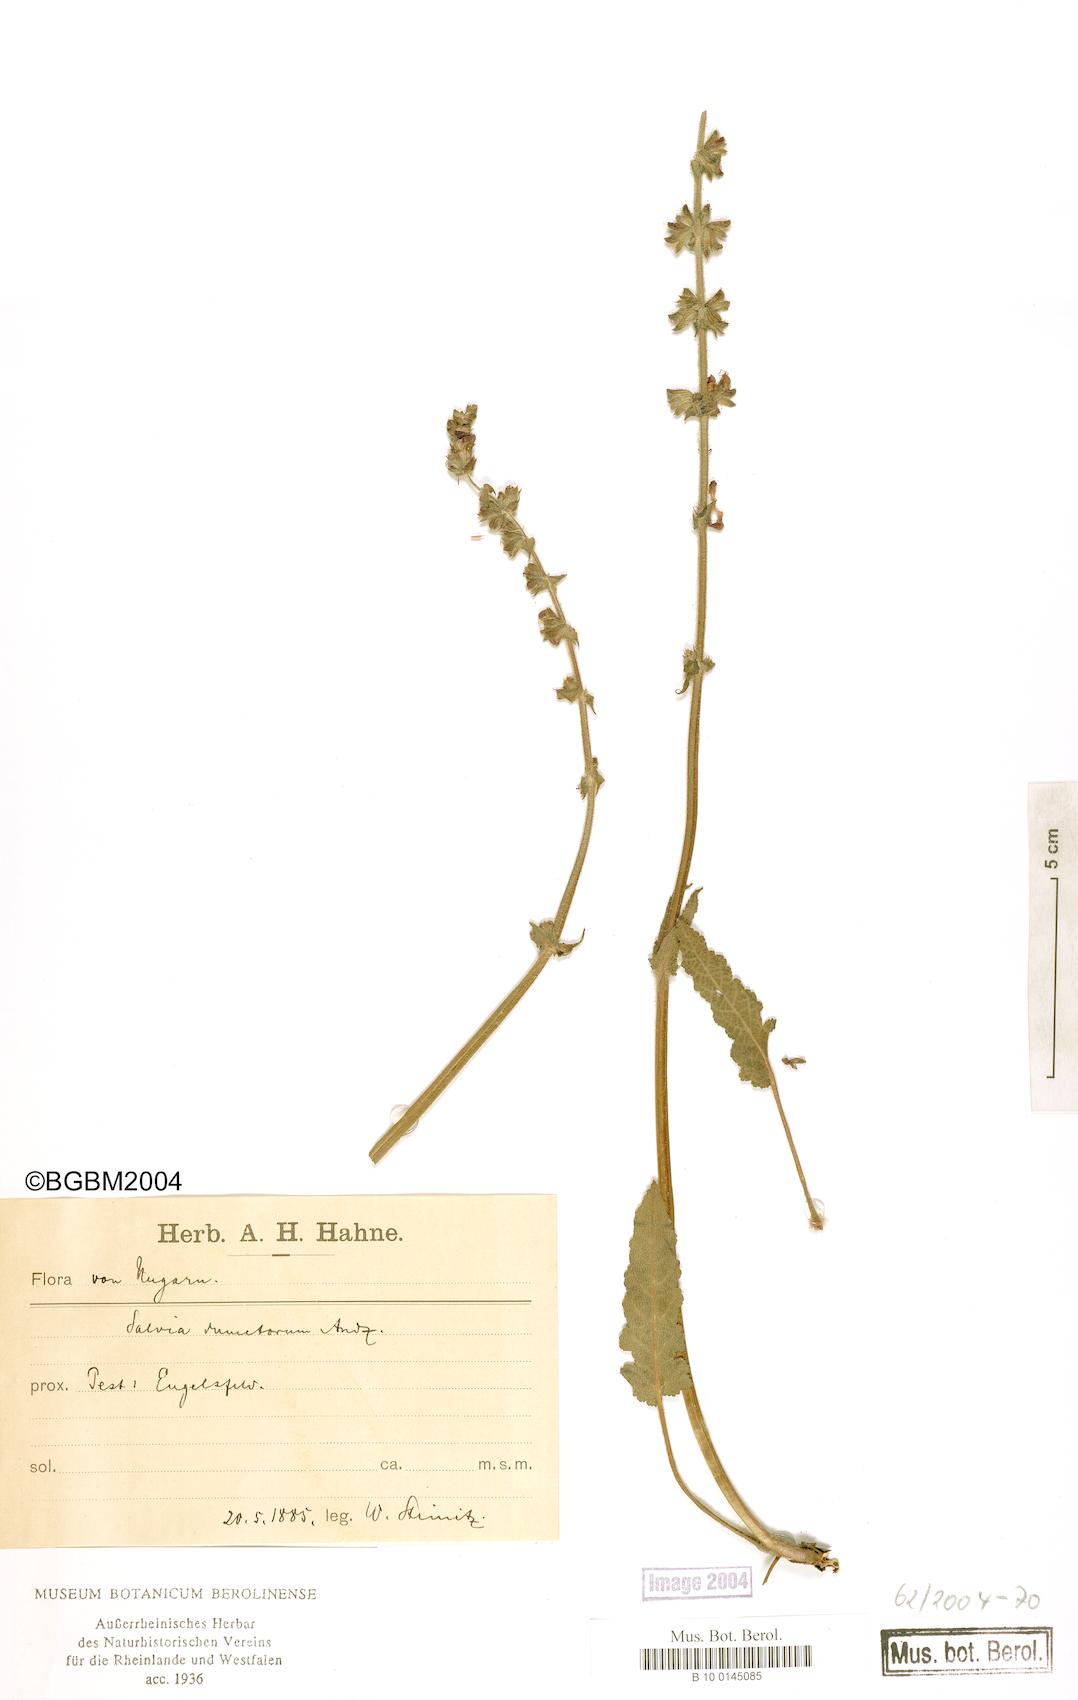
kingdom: Plantae
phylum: Tracheophyta
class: Magnoliopsida
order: Lamiales
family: Lamiaceae
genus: Salvia
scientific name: Salvia dumetorum
